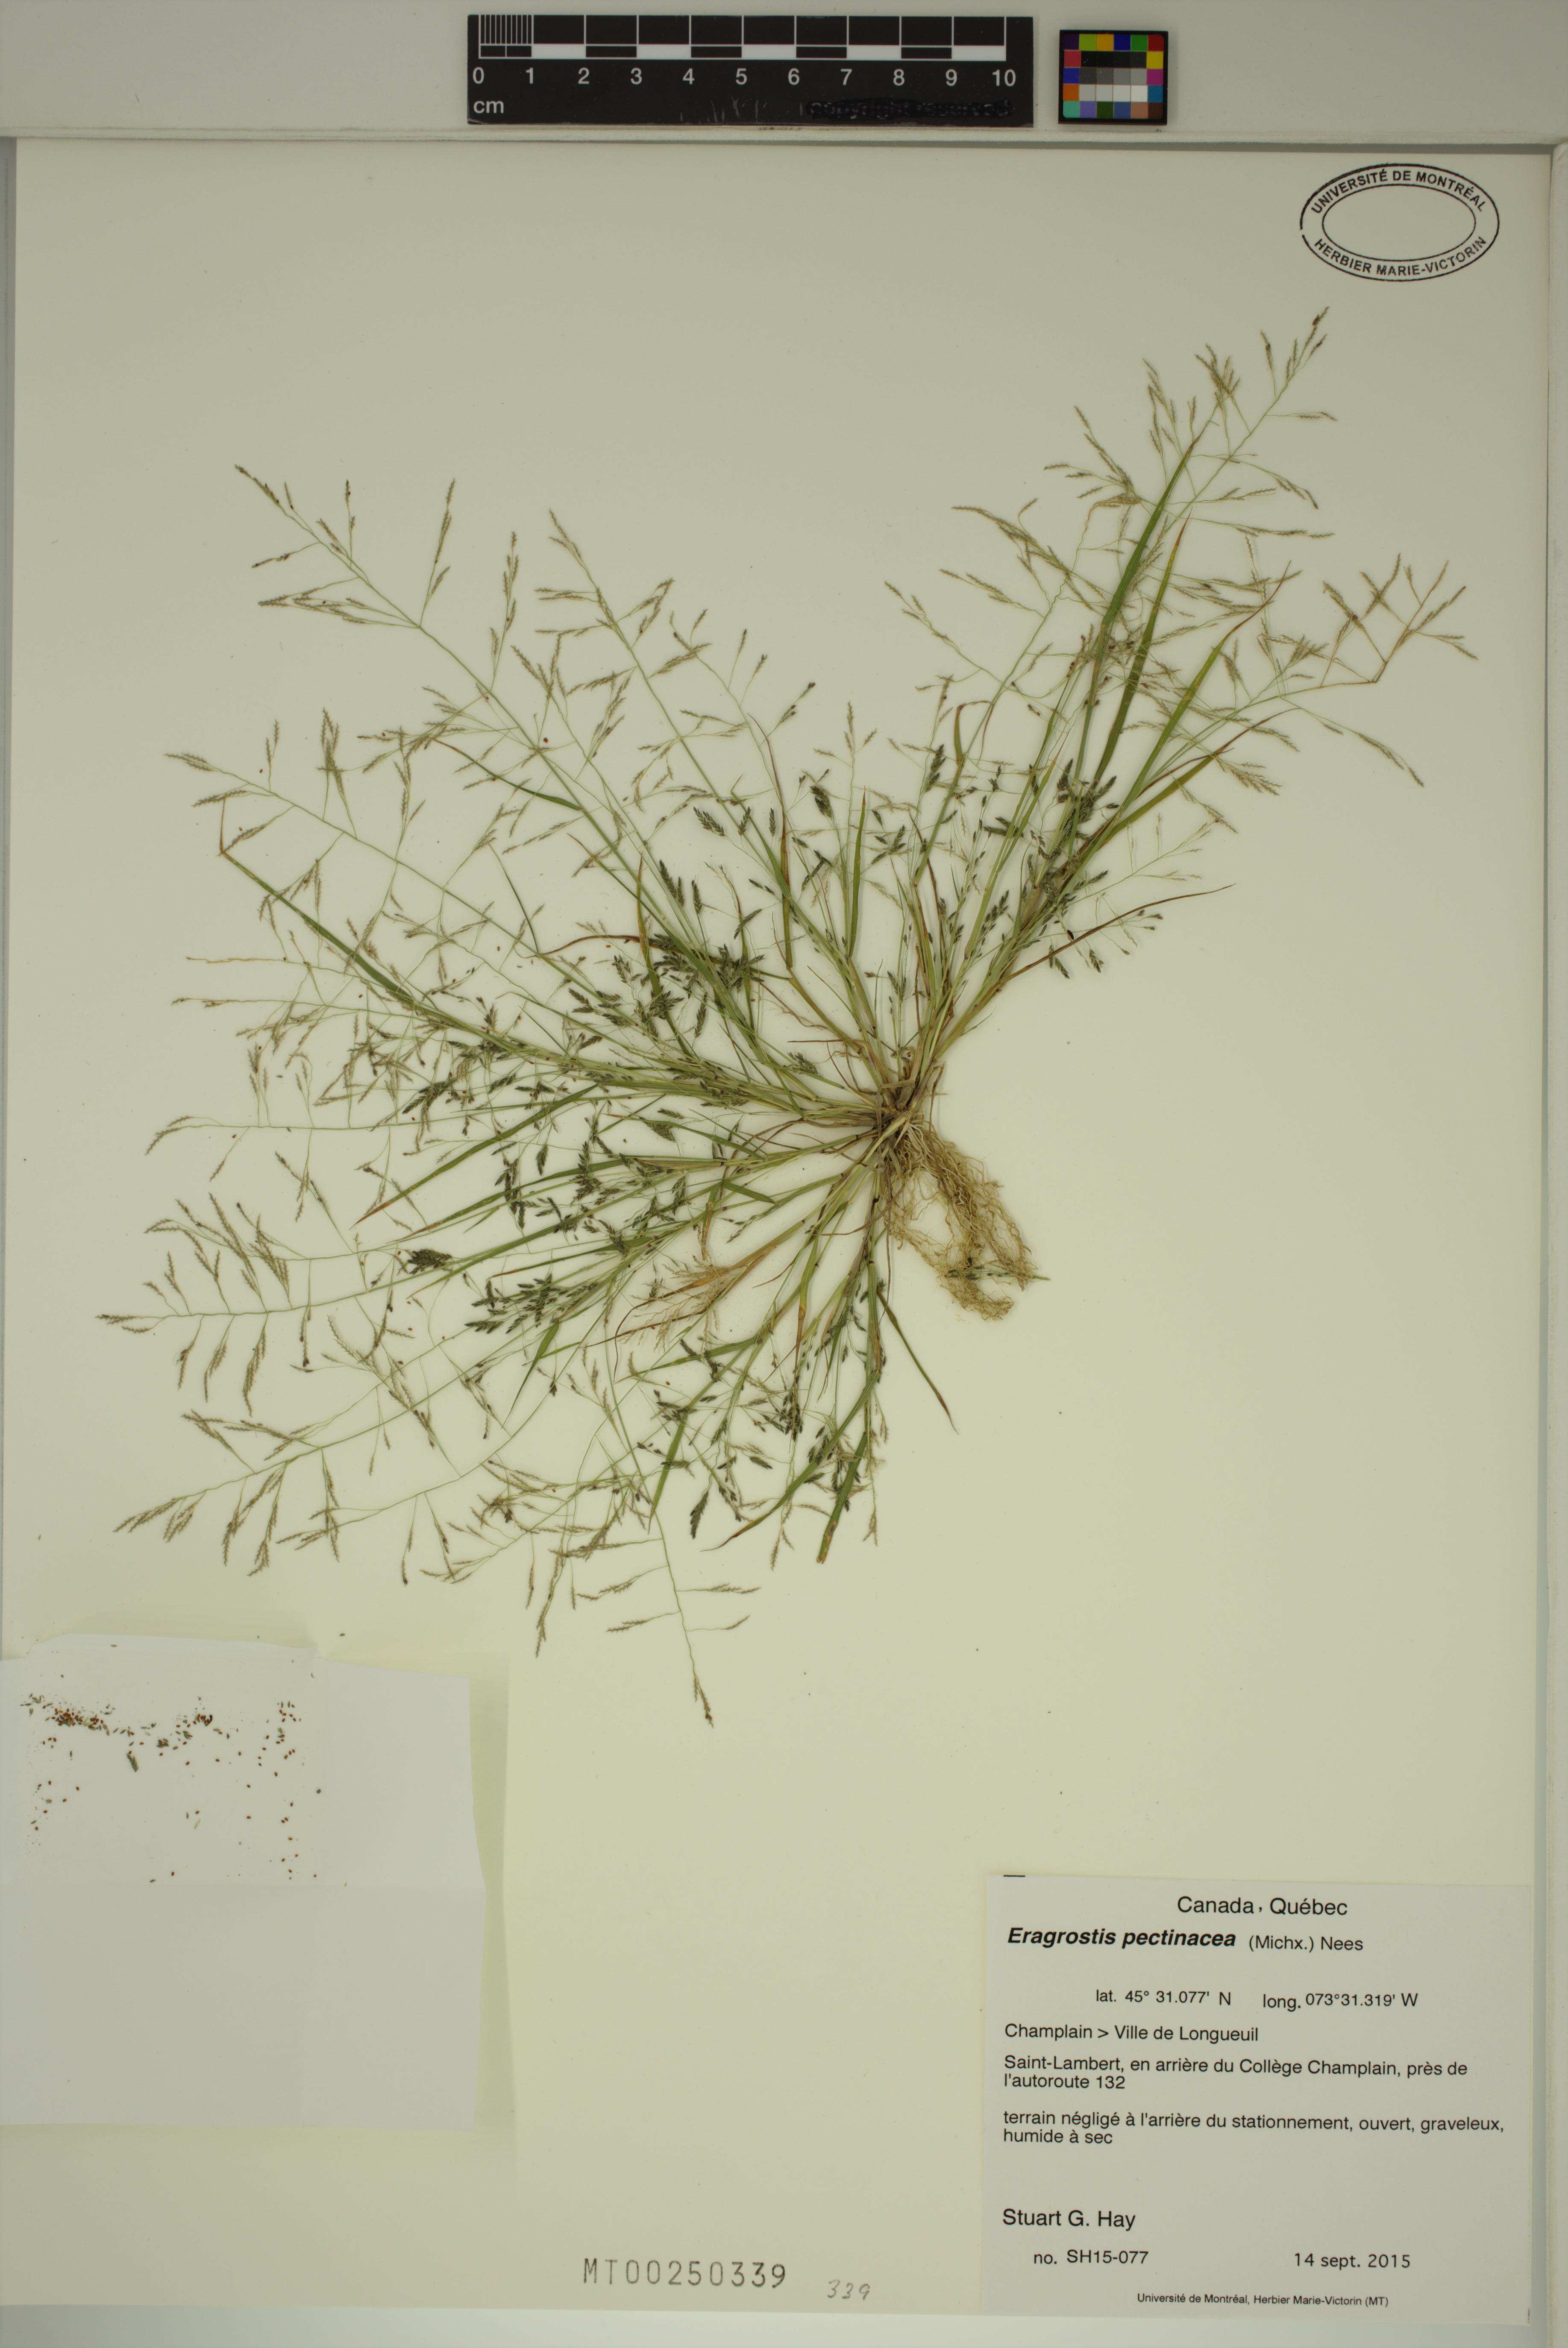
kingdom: Plantae
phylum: Tracheophyta
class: Liliopsida
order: Poales
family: Poaceae
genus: Eragrostis
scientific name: Eragrostis pectinacea
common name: Tufted lovegrass
